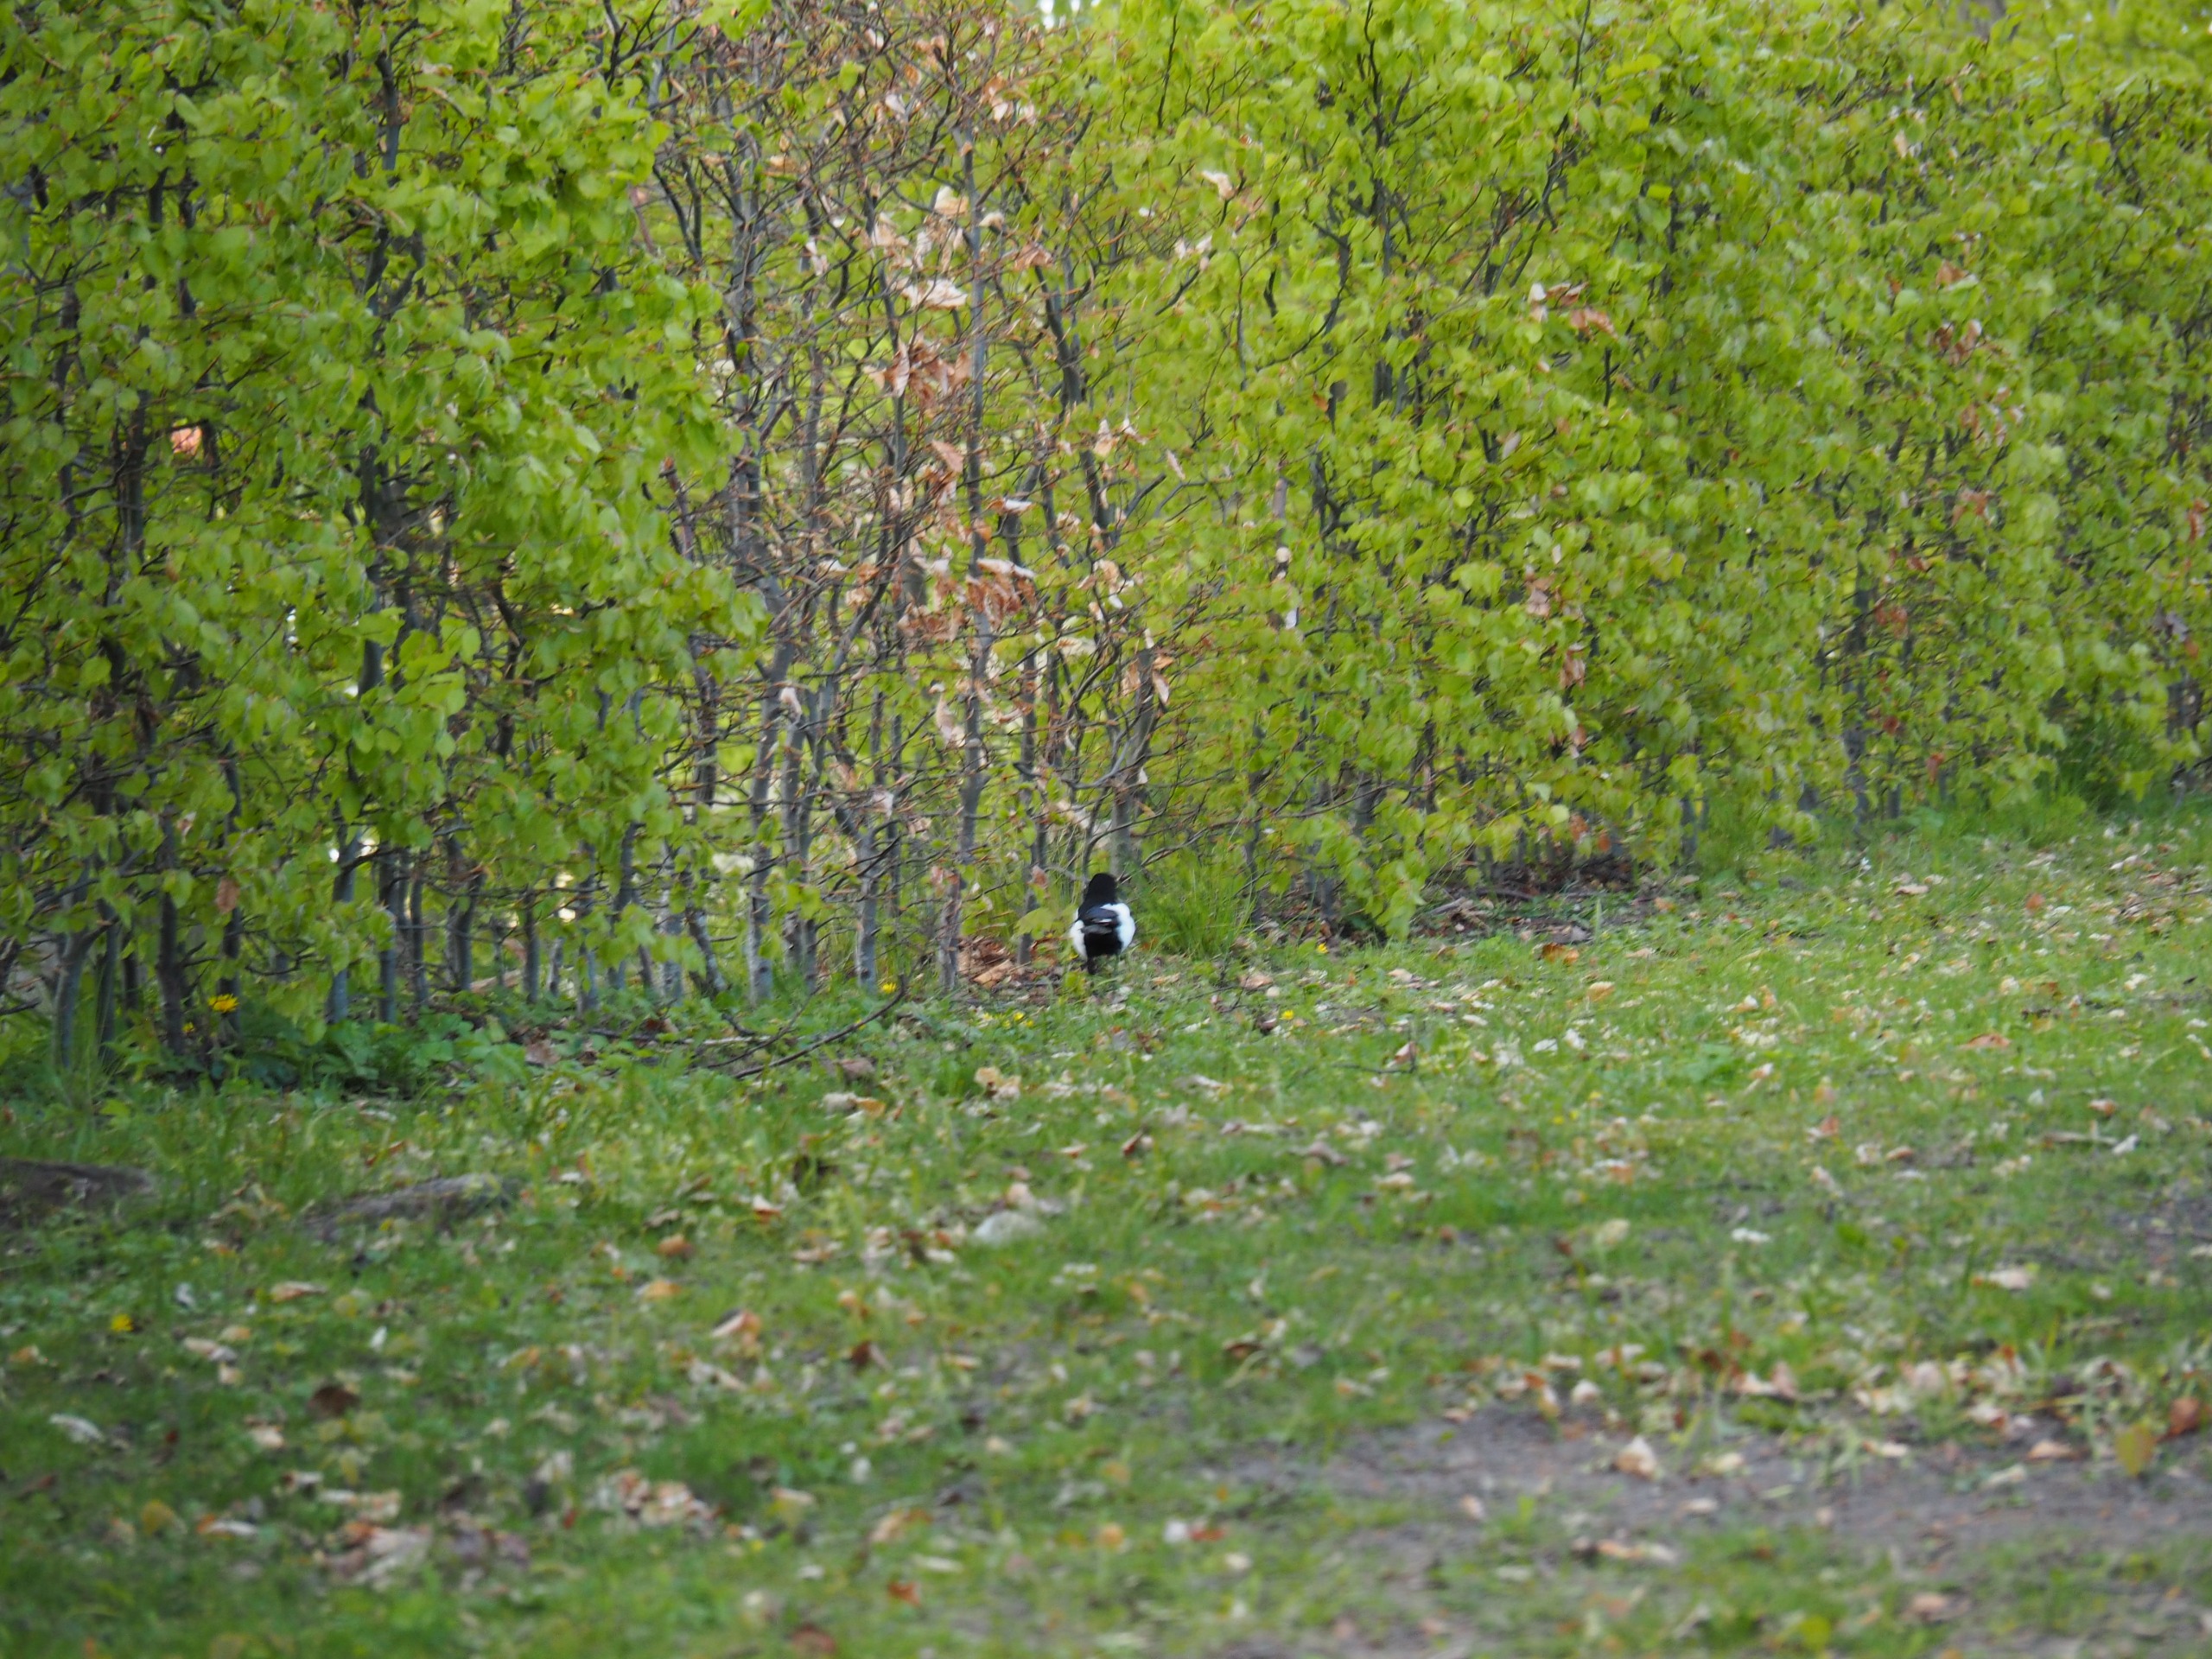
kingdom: Animalia
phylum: Chordata
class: Aves
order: Passeriformes
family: Corvidae
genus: Pica
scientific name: Pica pica
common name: Husskade
